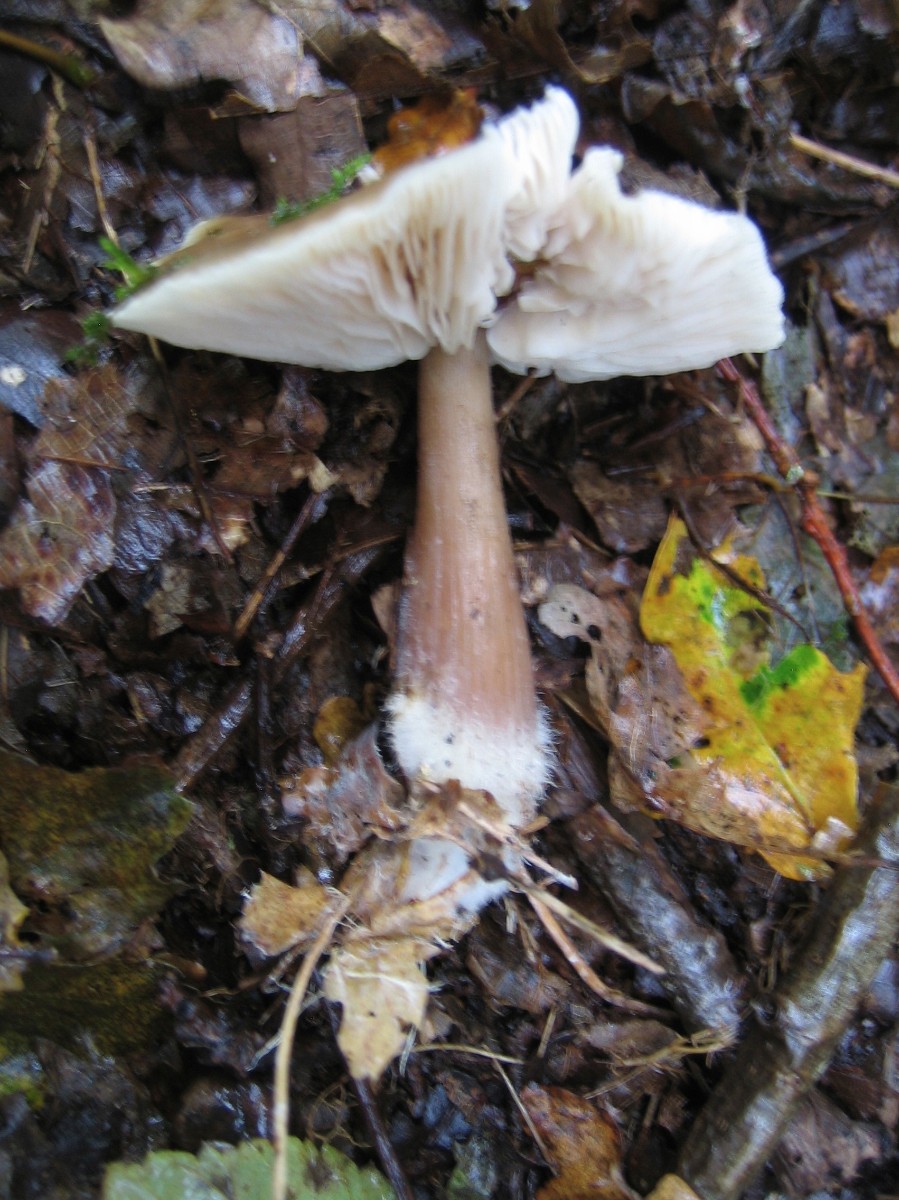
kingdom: Fungi
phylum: Basidiomycota
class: Agaricomycetes
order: Agaricales
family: Omphalotaceae
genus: Rhodocollybia
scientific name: Rhodocollybia asema
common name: horngrå fladhat
